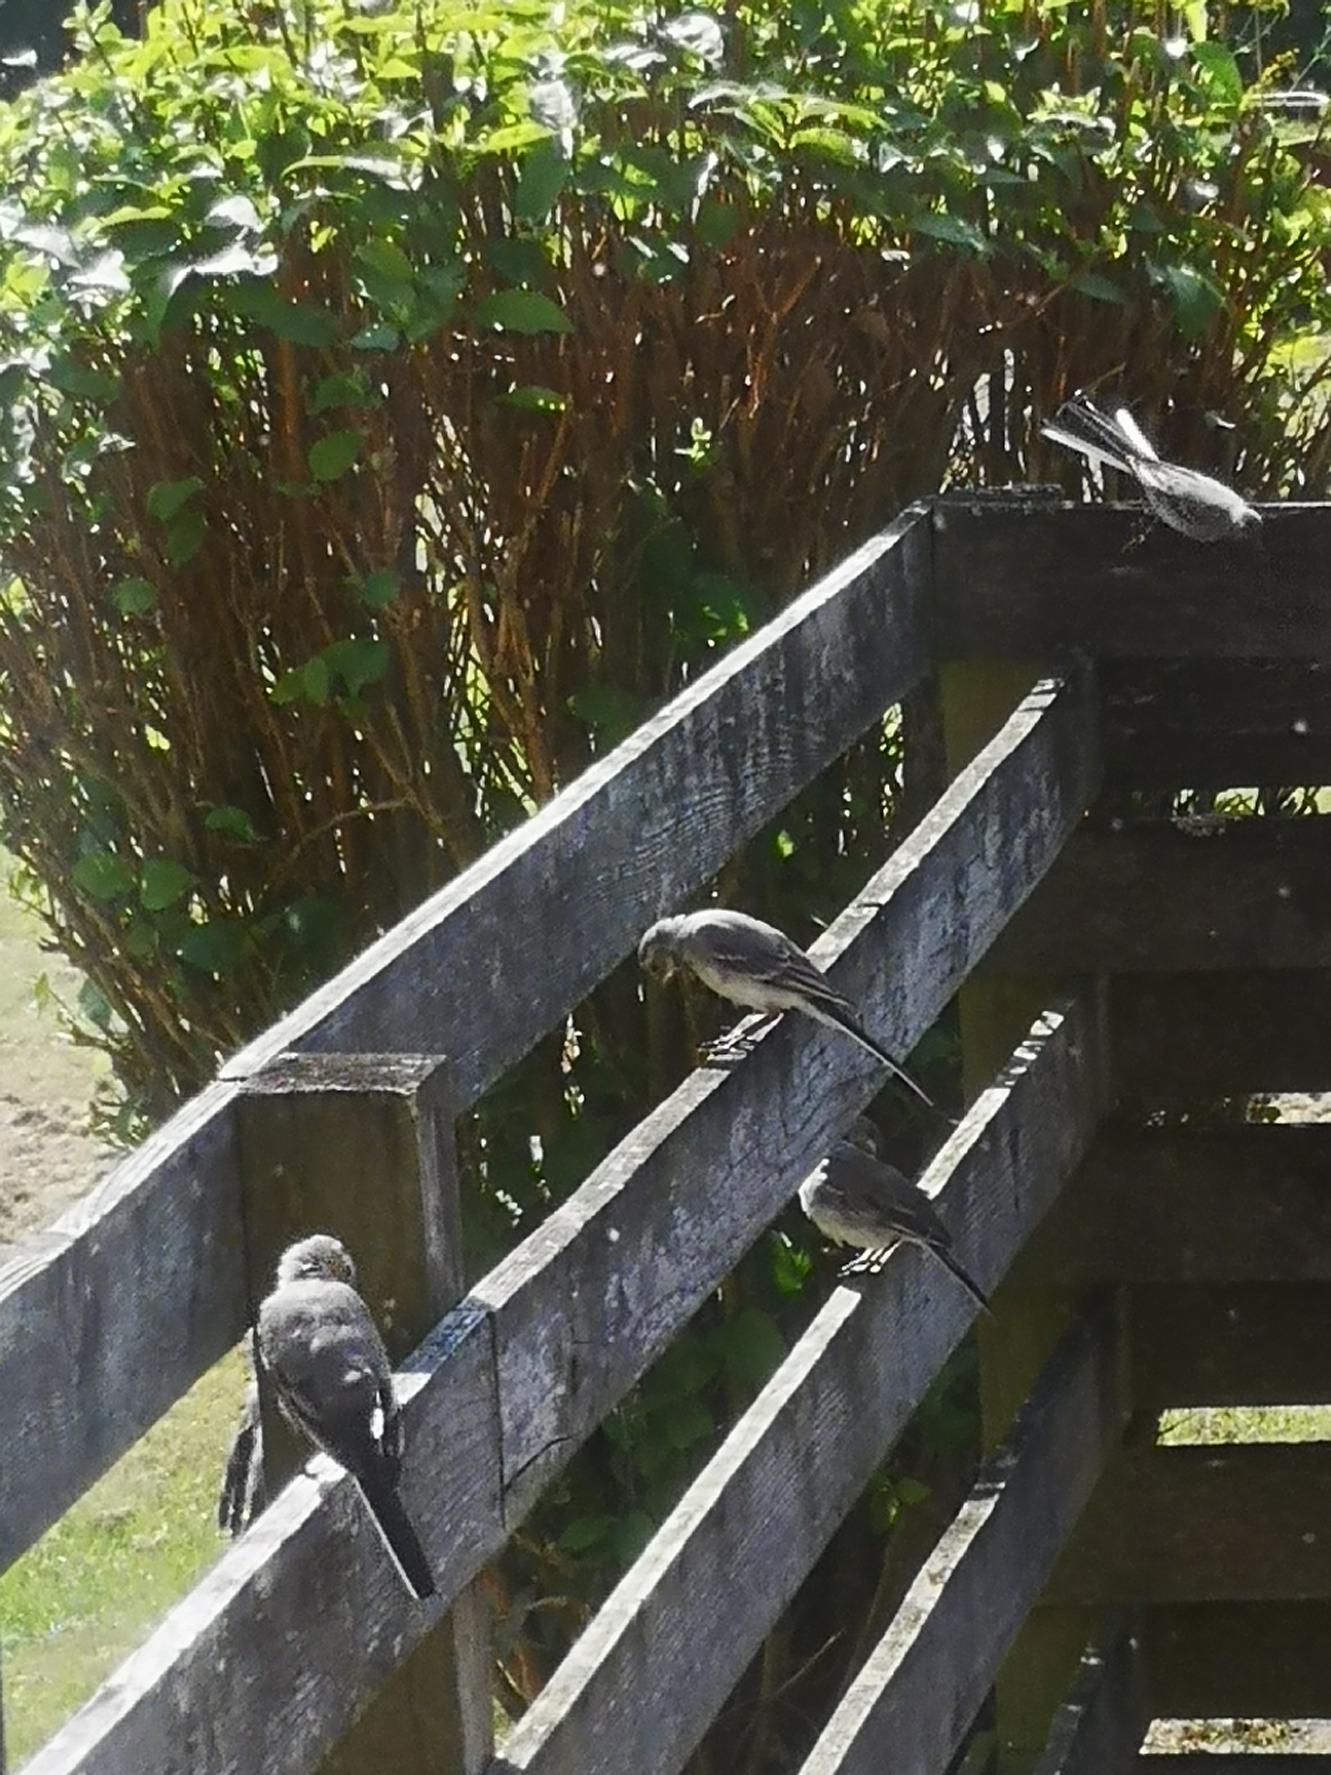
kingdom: Animalia
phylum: Chordata
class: Aves
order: Passeriformes
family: Motacillidae
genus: Motacilla
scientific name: Motacilla alba
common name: Hvid vipstjert
